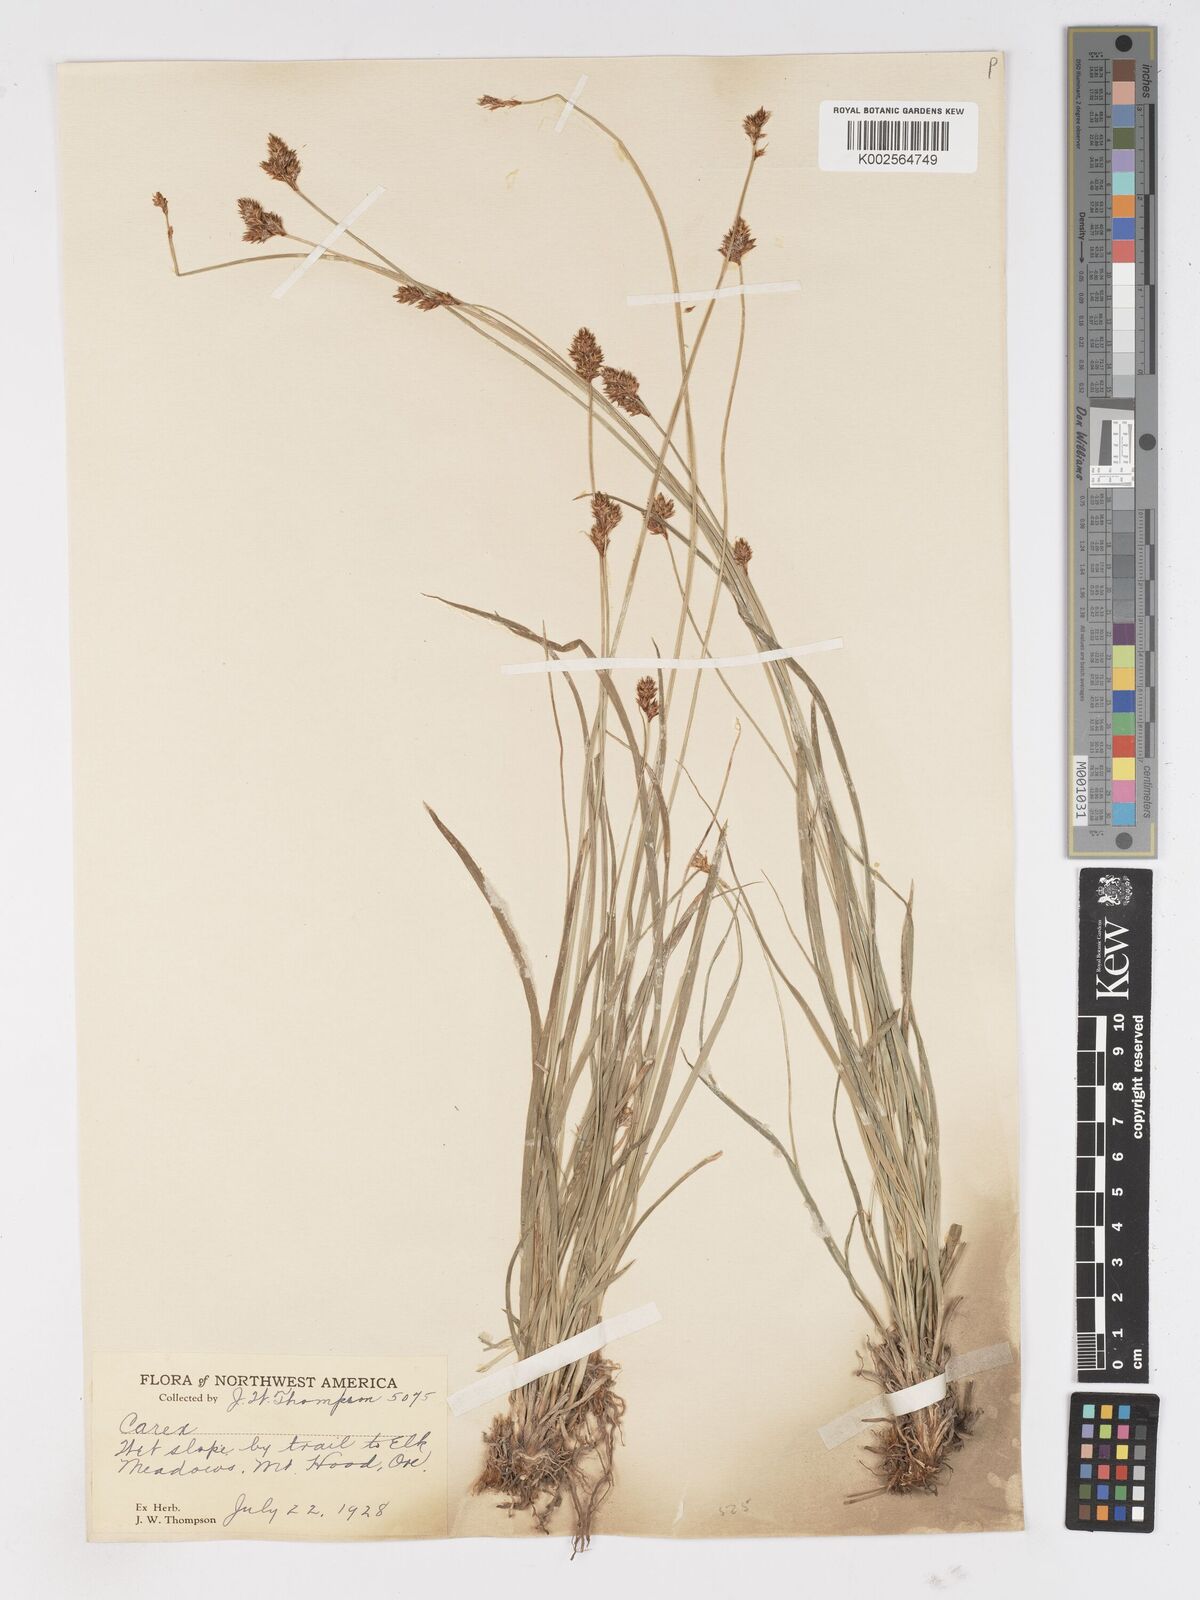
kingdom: Plantae
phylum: Tracheophyta
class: Liliopsida
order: Poales
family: Cyperaceae
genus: Carex
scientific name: Carex
